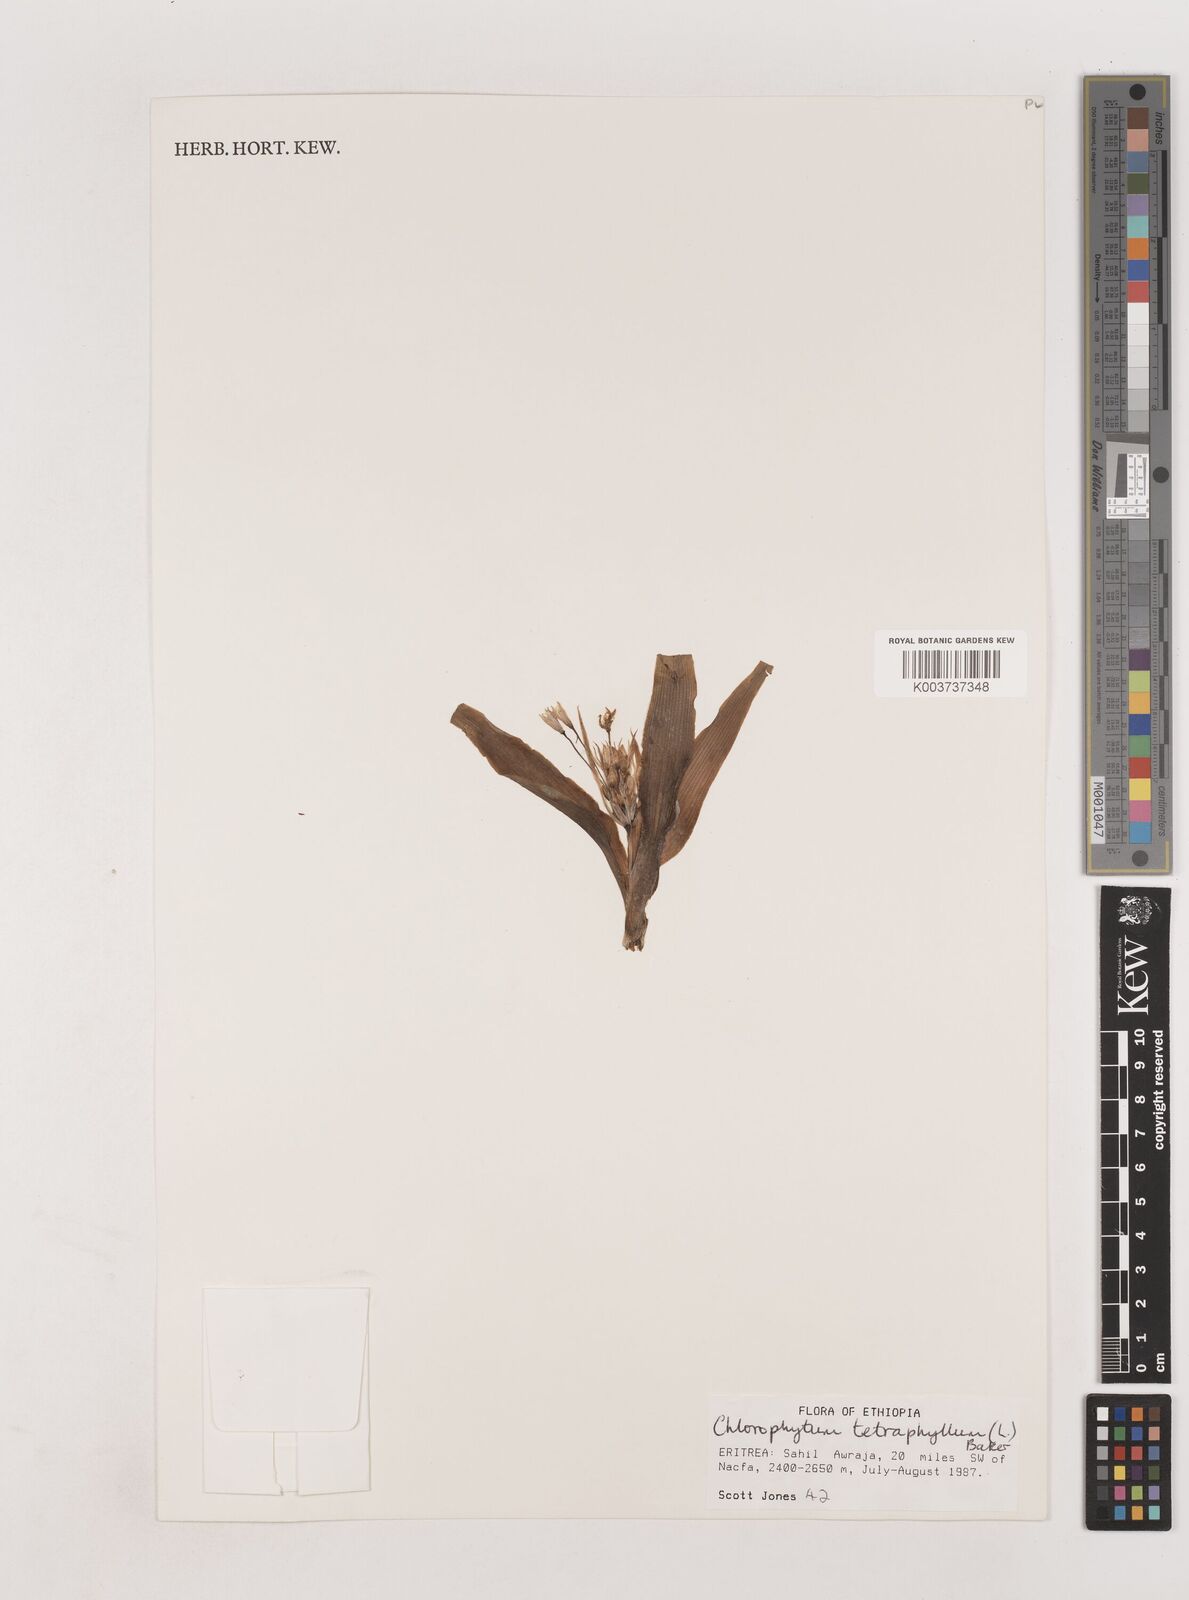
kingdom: Plantae
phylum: Tracheophyta
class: Liliopsida
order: Asparagales
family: Asparagaceae
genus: Chlorophytum
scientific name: Chlorophytum tetraphyllum
